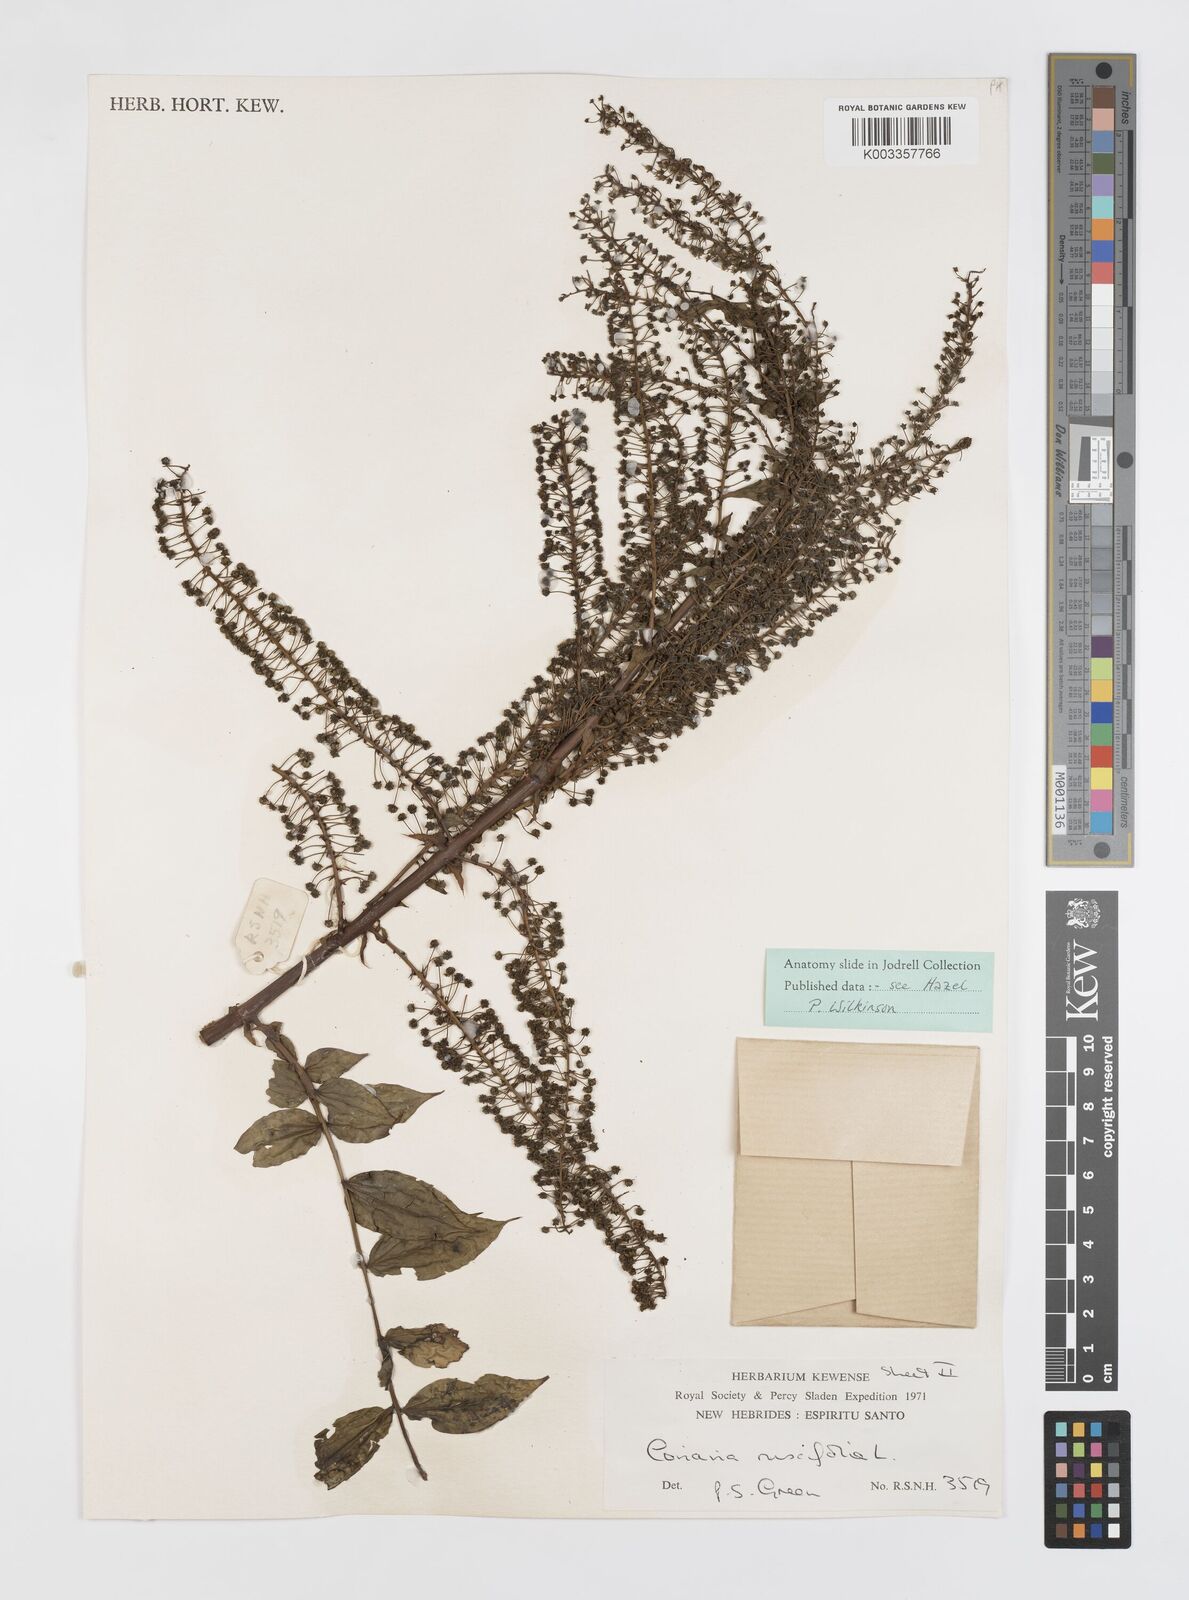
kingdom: Plantae
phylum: Tracheophyta
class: Magnoliopsida
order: Cucurbitales
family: Coriariaceae
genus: Coriaria
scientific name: Coriaria ruscifolia
